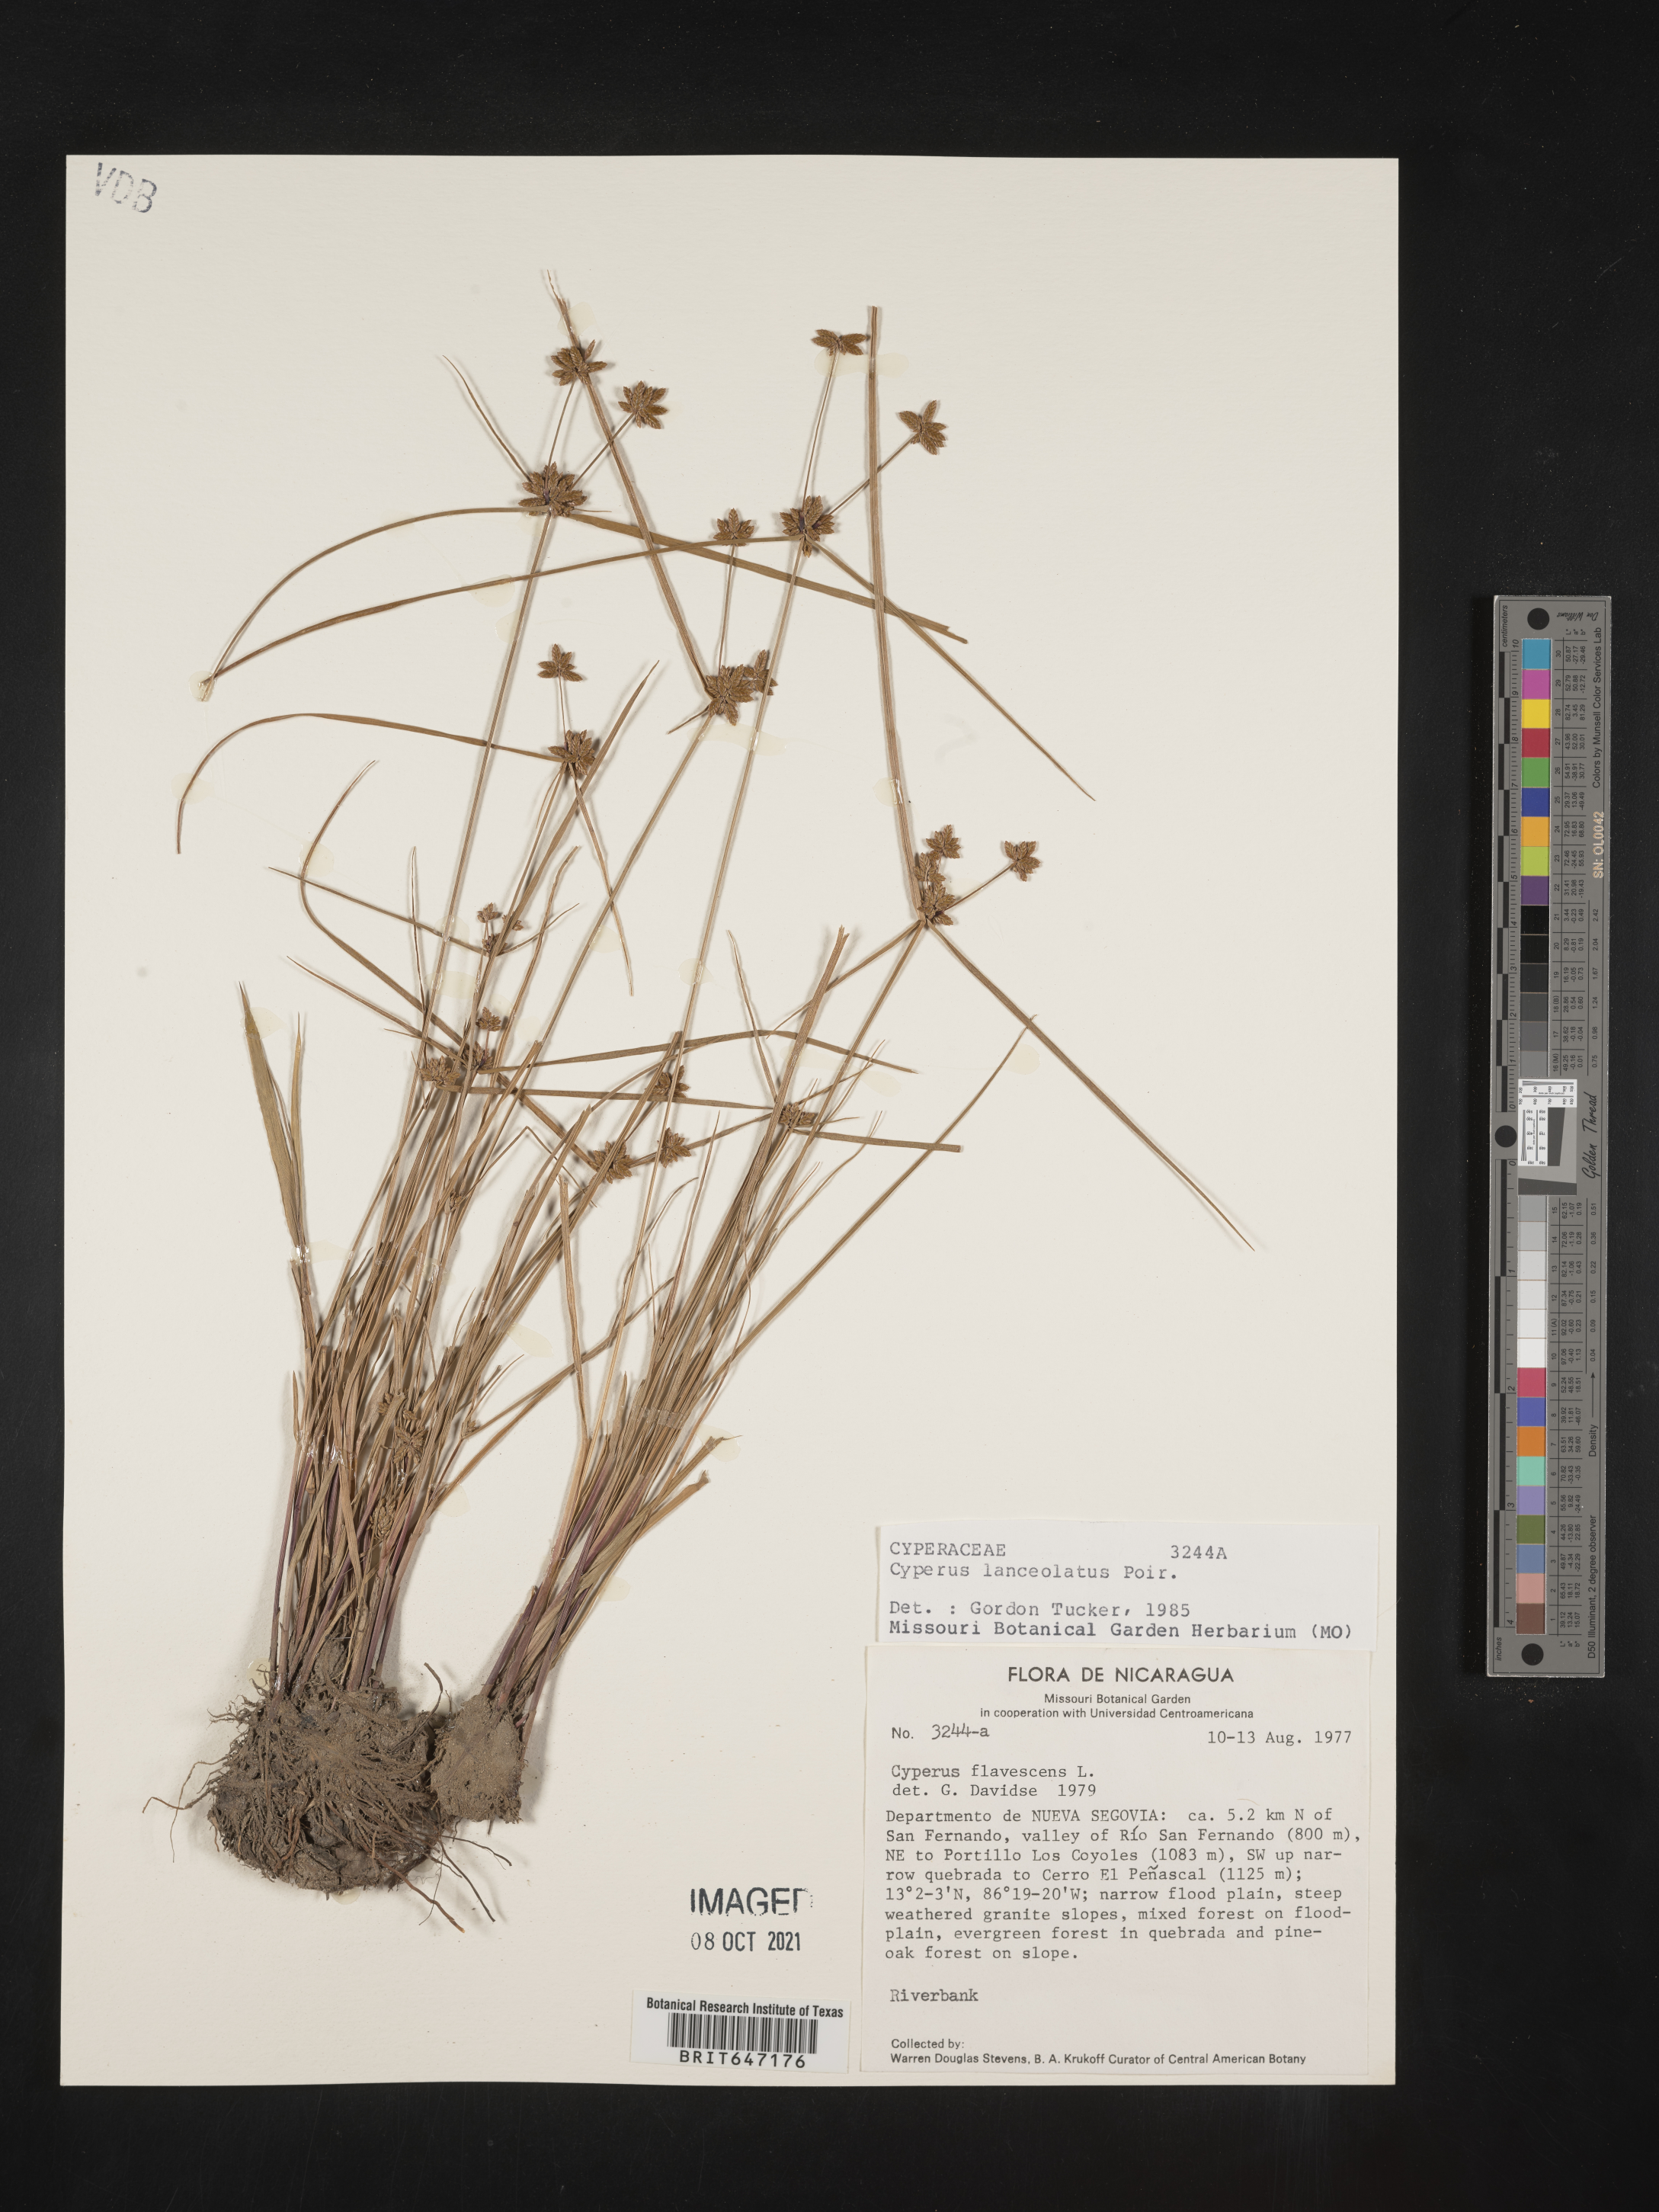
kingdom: Plantae
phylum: Tracheophyta
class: Liliopsida
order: Poales
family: Cyperaceae
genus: Cyperus
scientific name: Cyperus lanceolatus
